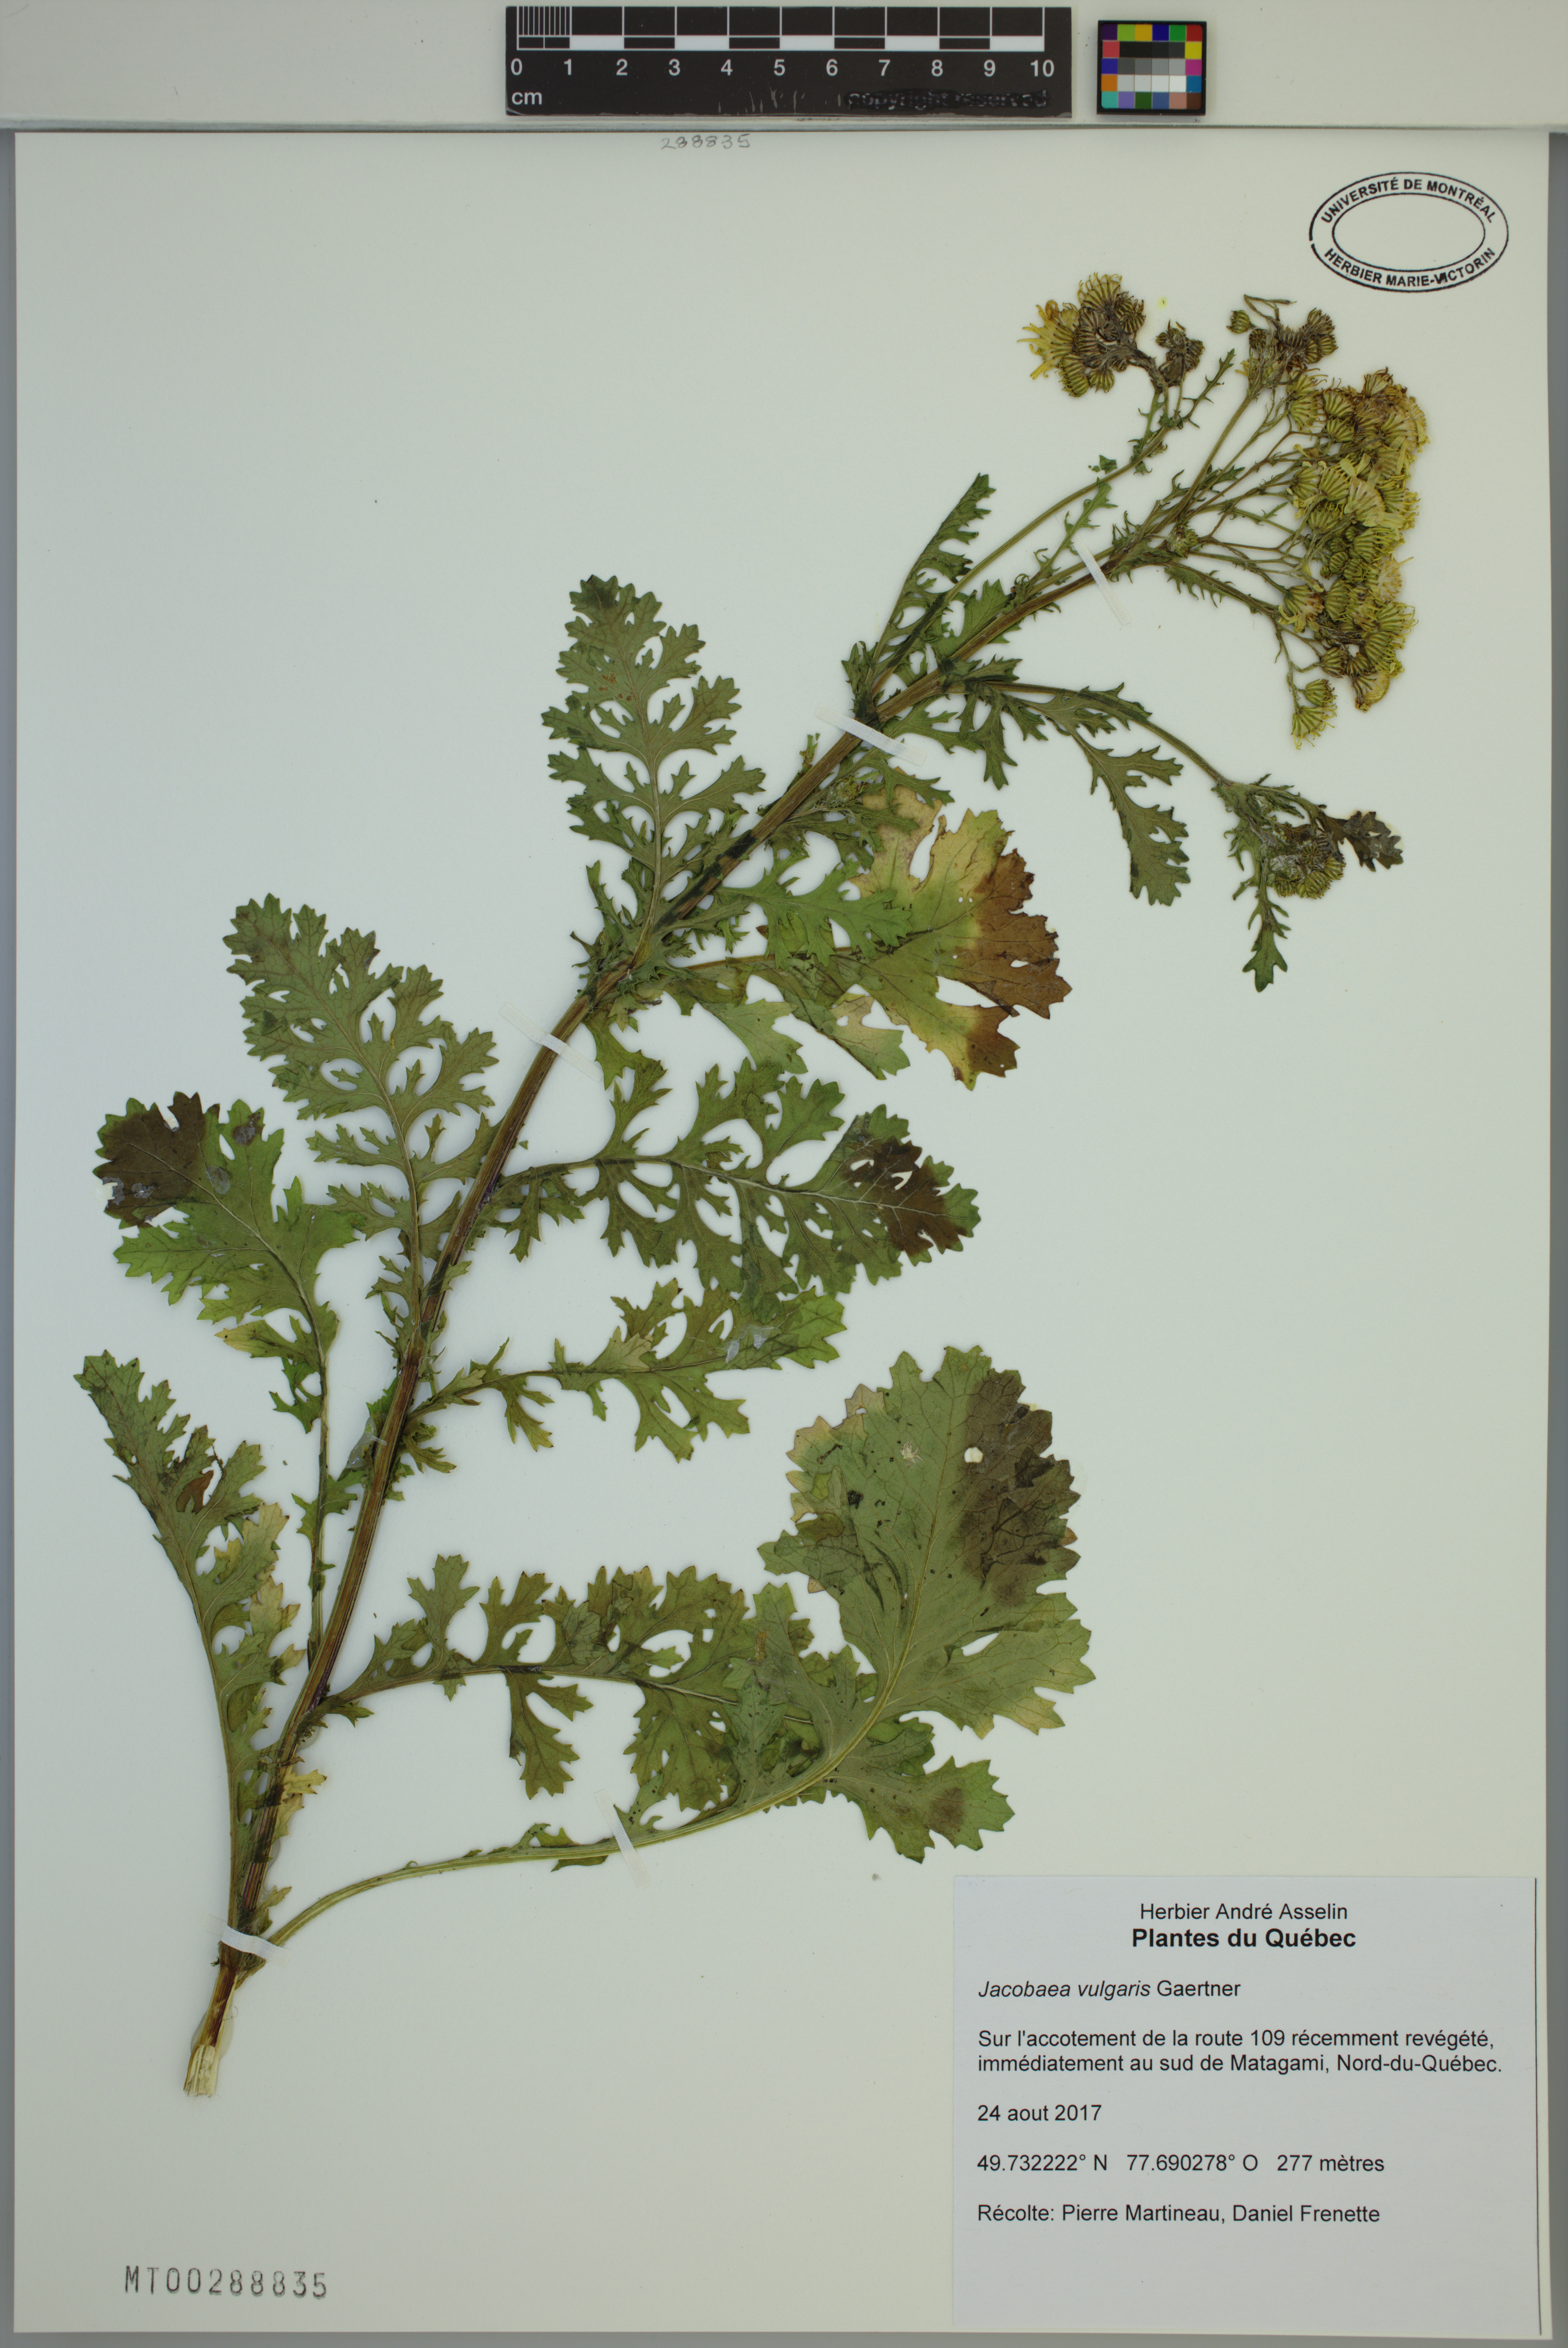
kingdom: Plantae
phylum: Tracheophyta
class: Magnoliopsida
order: Asterales
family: Asteraceae
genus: Jacobaea
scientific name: Jacobaea vulgaris
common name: Stinking willie
